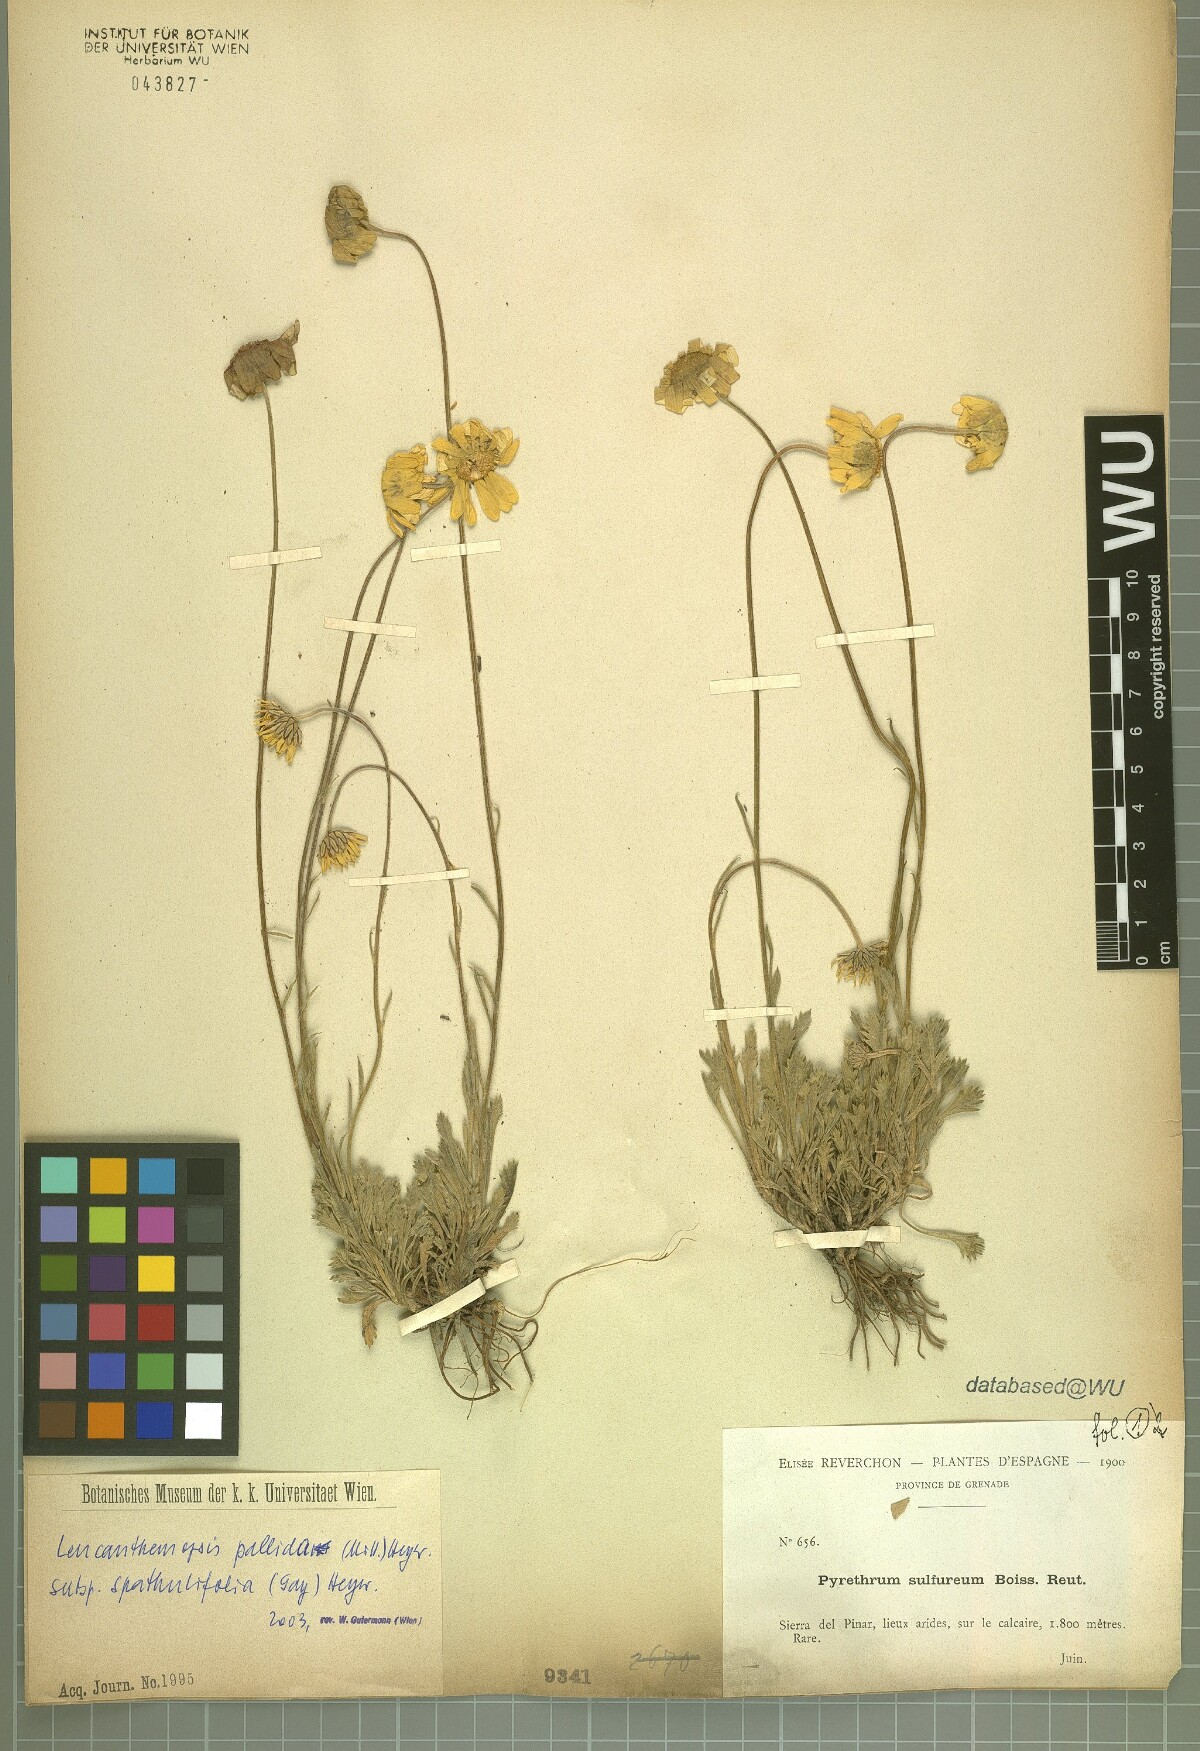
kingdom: Plantae
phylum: Tracheophyta
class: Magnoliopsida
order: Asterales
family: Asteraceae
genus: Leucanthemopsis
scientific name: Leucanthemopsis spathulifolia
